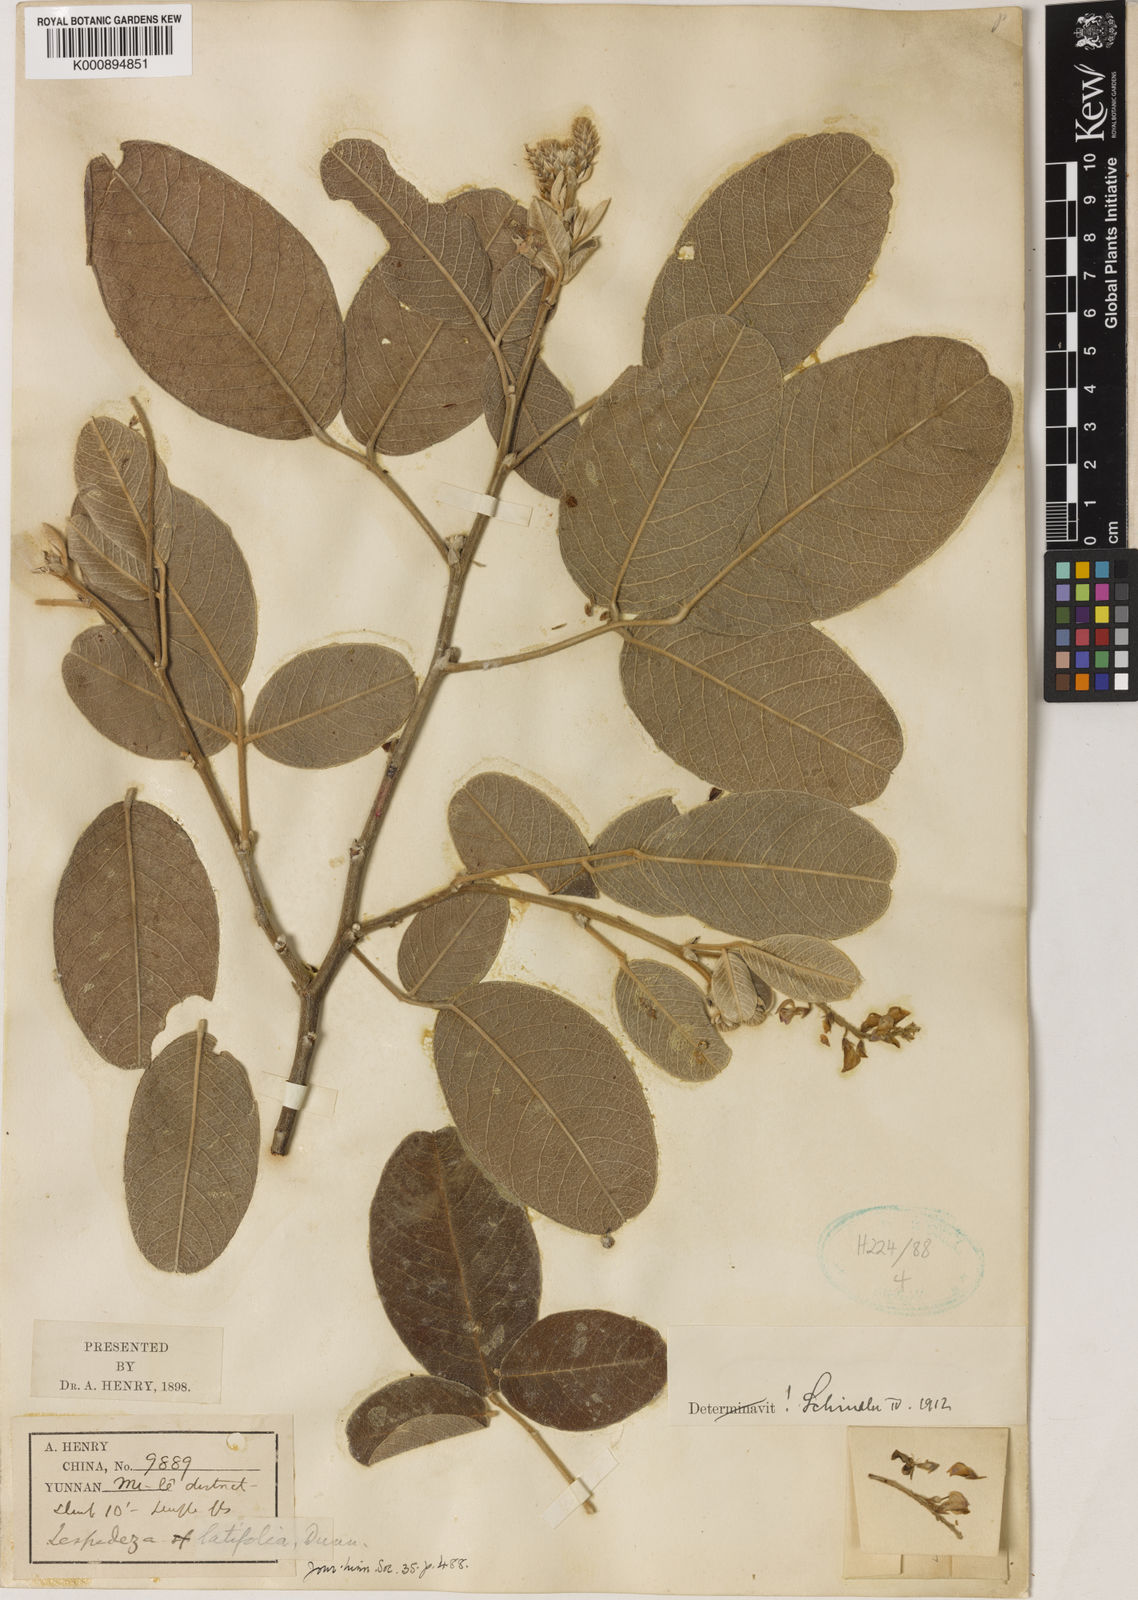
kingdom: Plantae
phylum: Tracheophyta
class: Magnoliopsida
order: Fabales
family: Fabaceae
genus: Campylotropis
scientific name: Campylotropis latifolia
